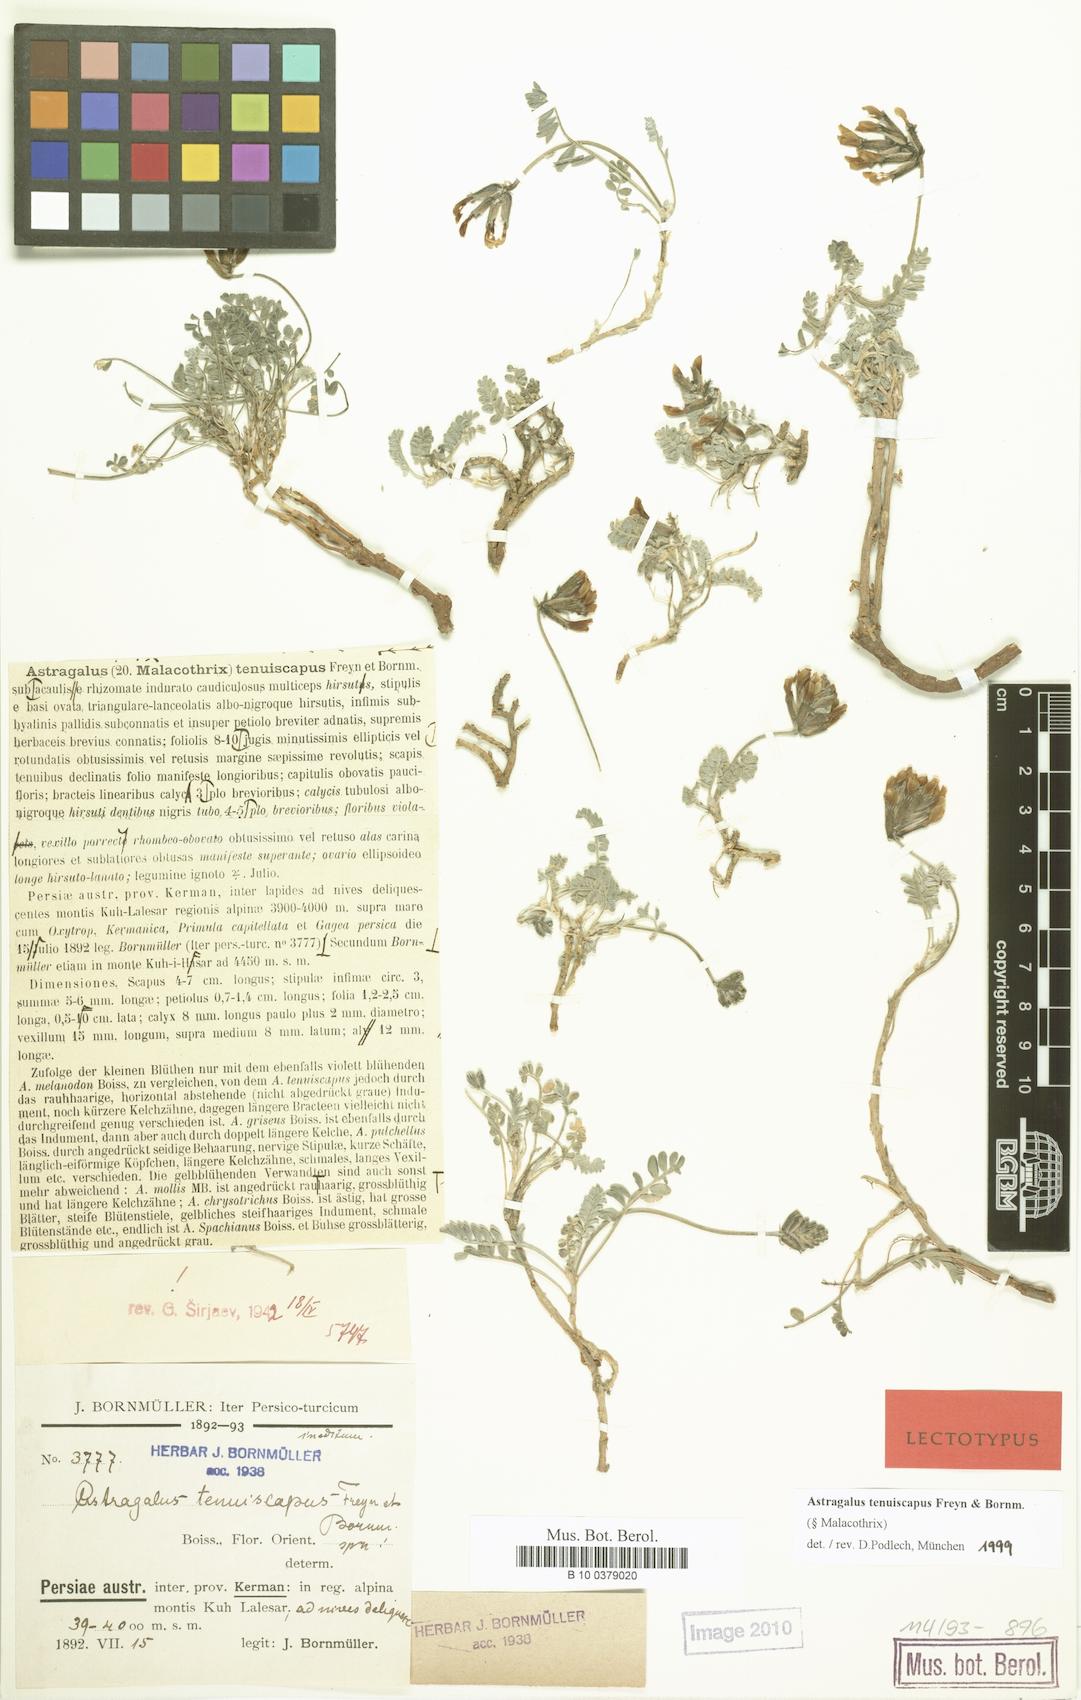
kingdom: Plantae
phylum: Tracheophyta
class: Magnoliopsida
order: Fabales
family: Fabaceae
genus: Astragalus
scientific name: Astragalus tenuiscapus
